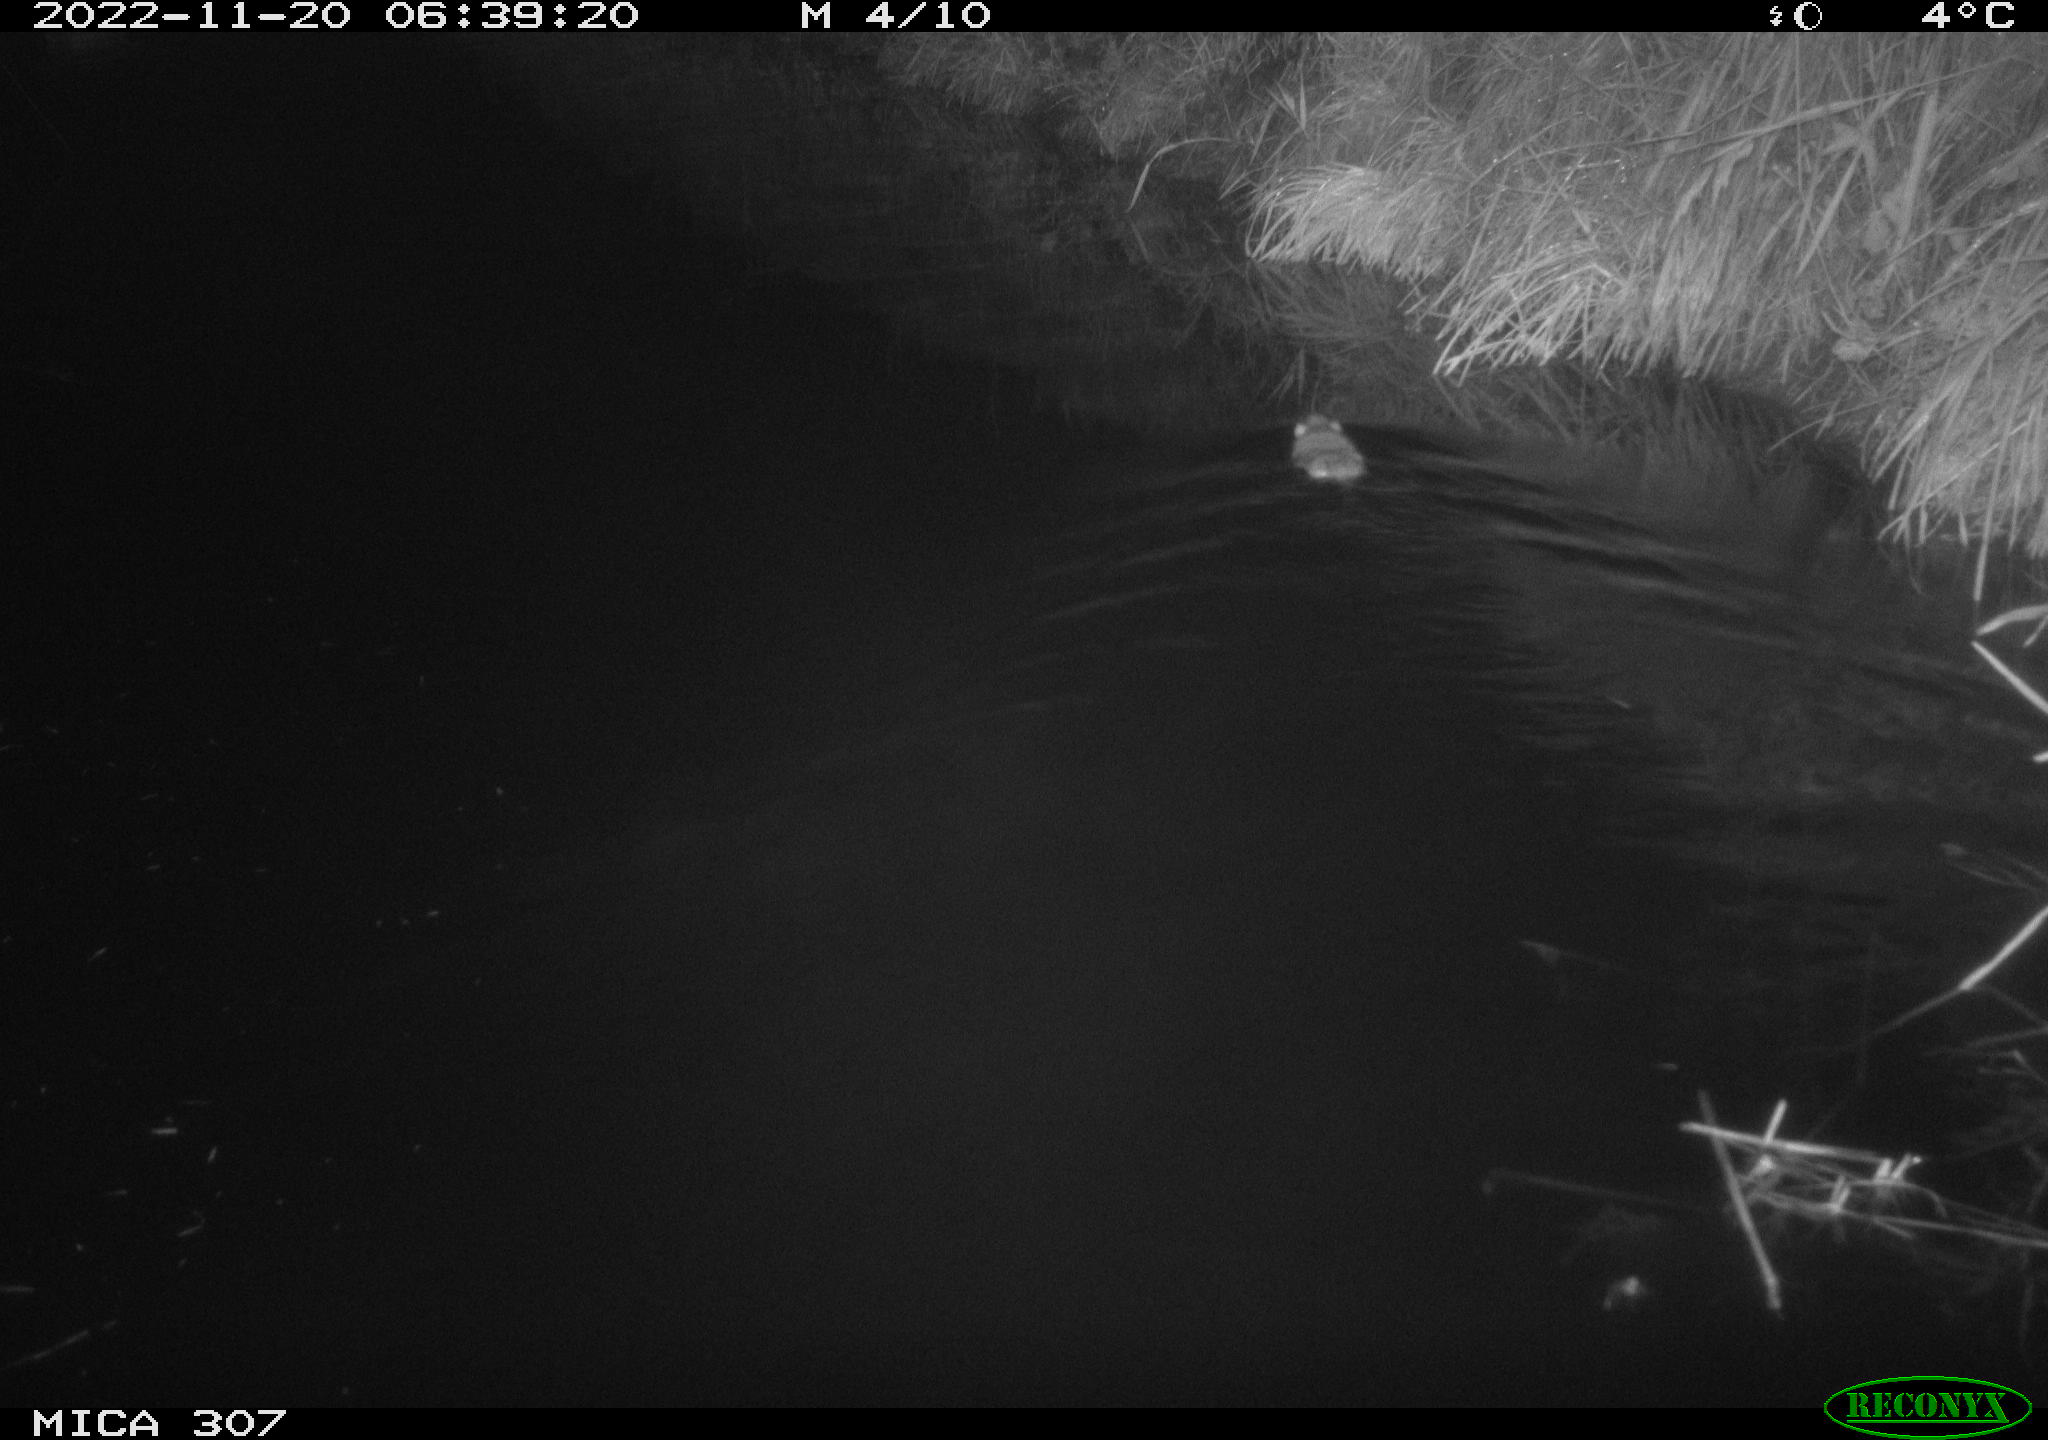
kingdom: Animalia
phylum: Chordata
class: Mammalia
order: Rodentia
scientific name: Rodentia
